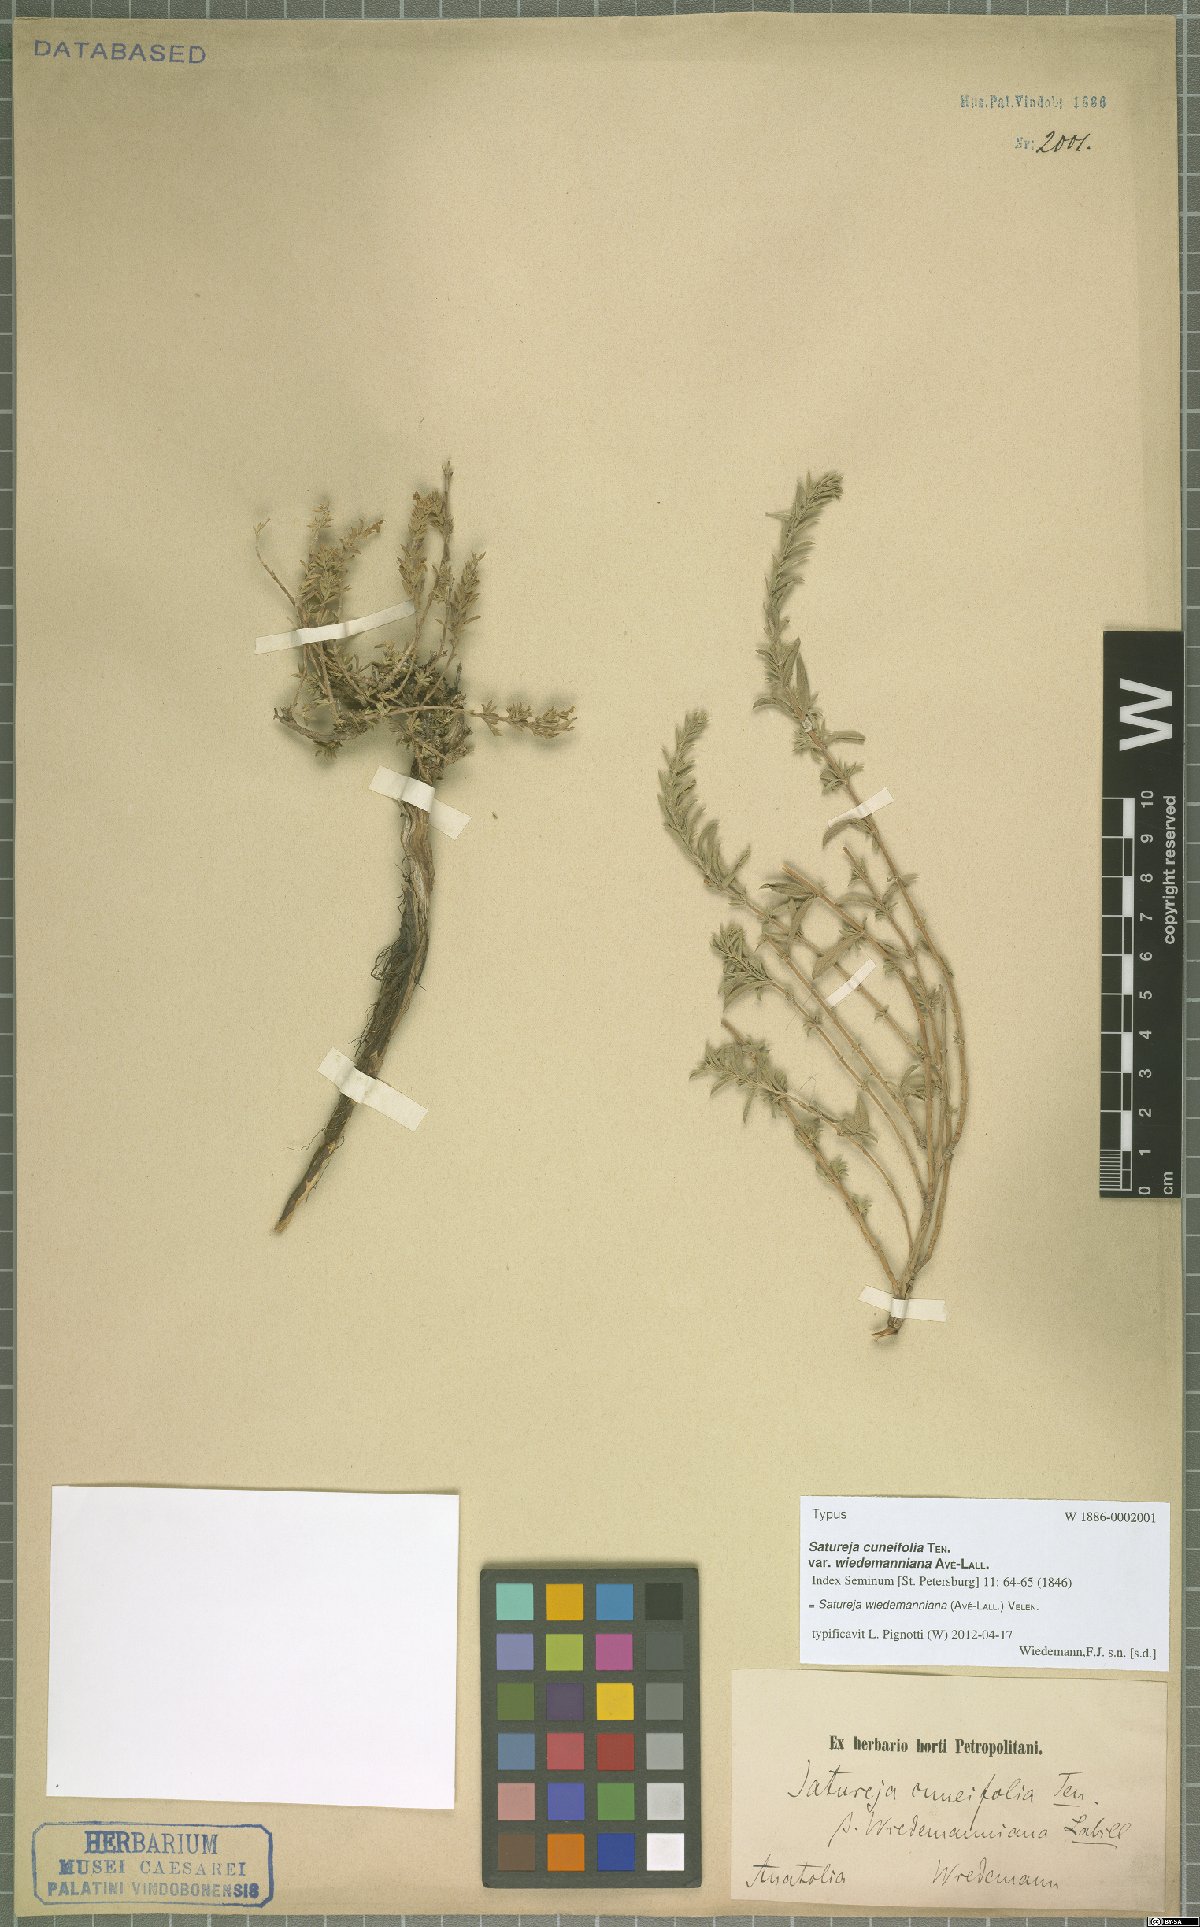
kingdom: Plantae
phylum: Tracheophyta
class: Magnoliopsida
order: Lamiales
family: Lamiaceae
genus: Satureja
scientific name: Satureja wiedemanniana
